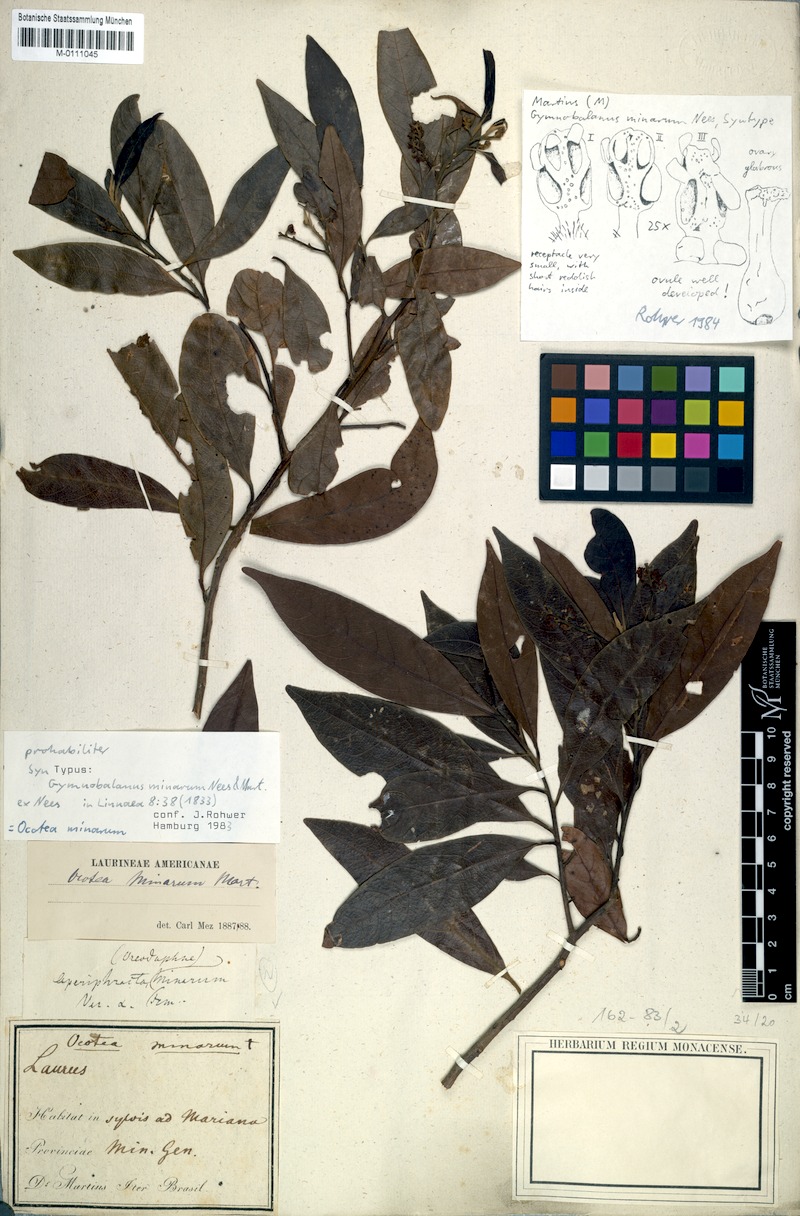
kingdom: Plantae
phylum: Tracheophyta
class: Magnoliopsida
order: Laurales
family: Lauraceae
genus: Ocotea
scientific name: Ocotea minarum
